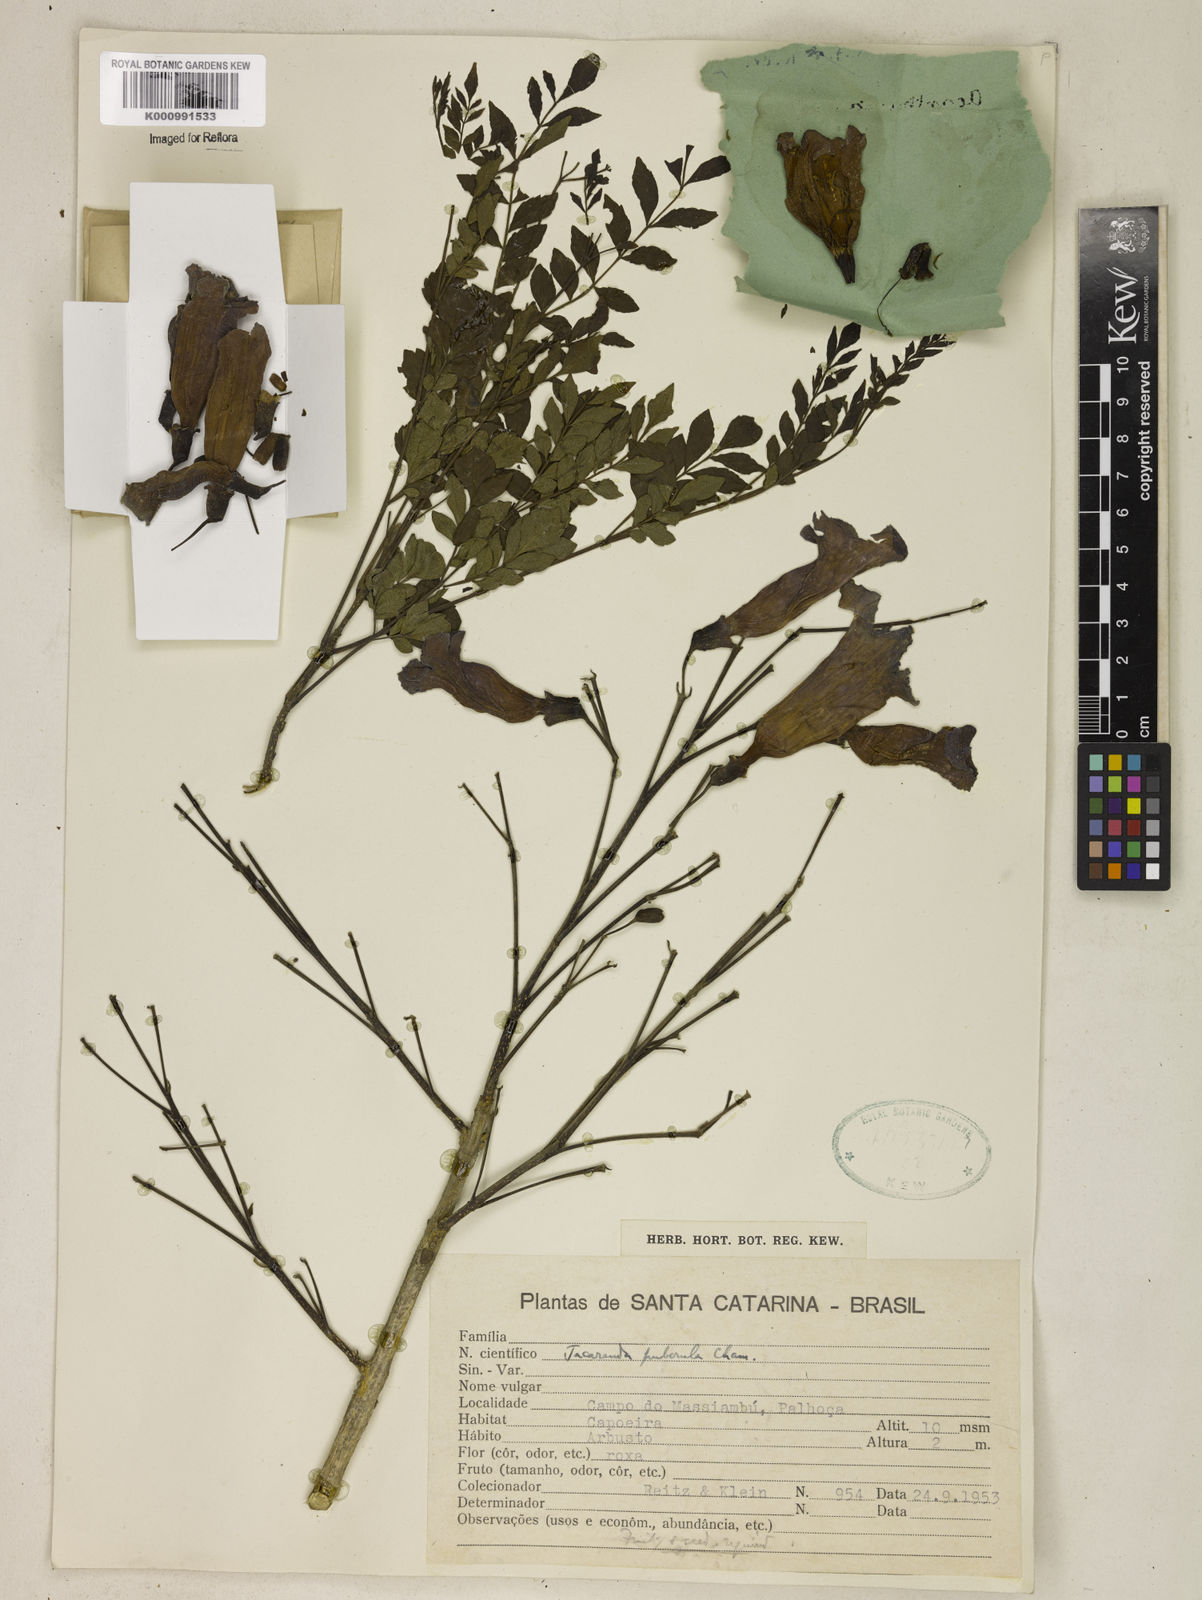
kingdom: Plantae
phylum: Tracheophyta
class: Magnoliopsida
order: Lamiales
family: Bignoniaceae
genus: Jacaranda
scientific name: Jacaranda puberula
